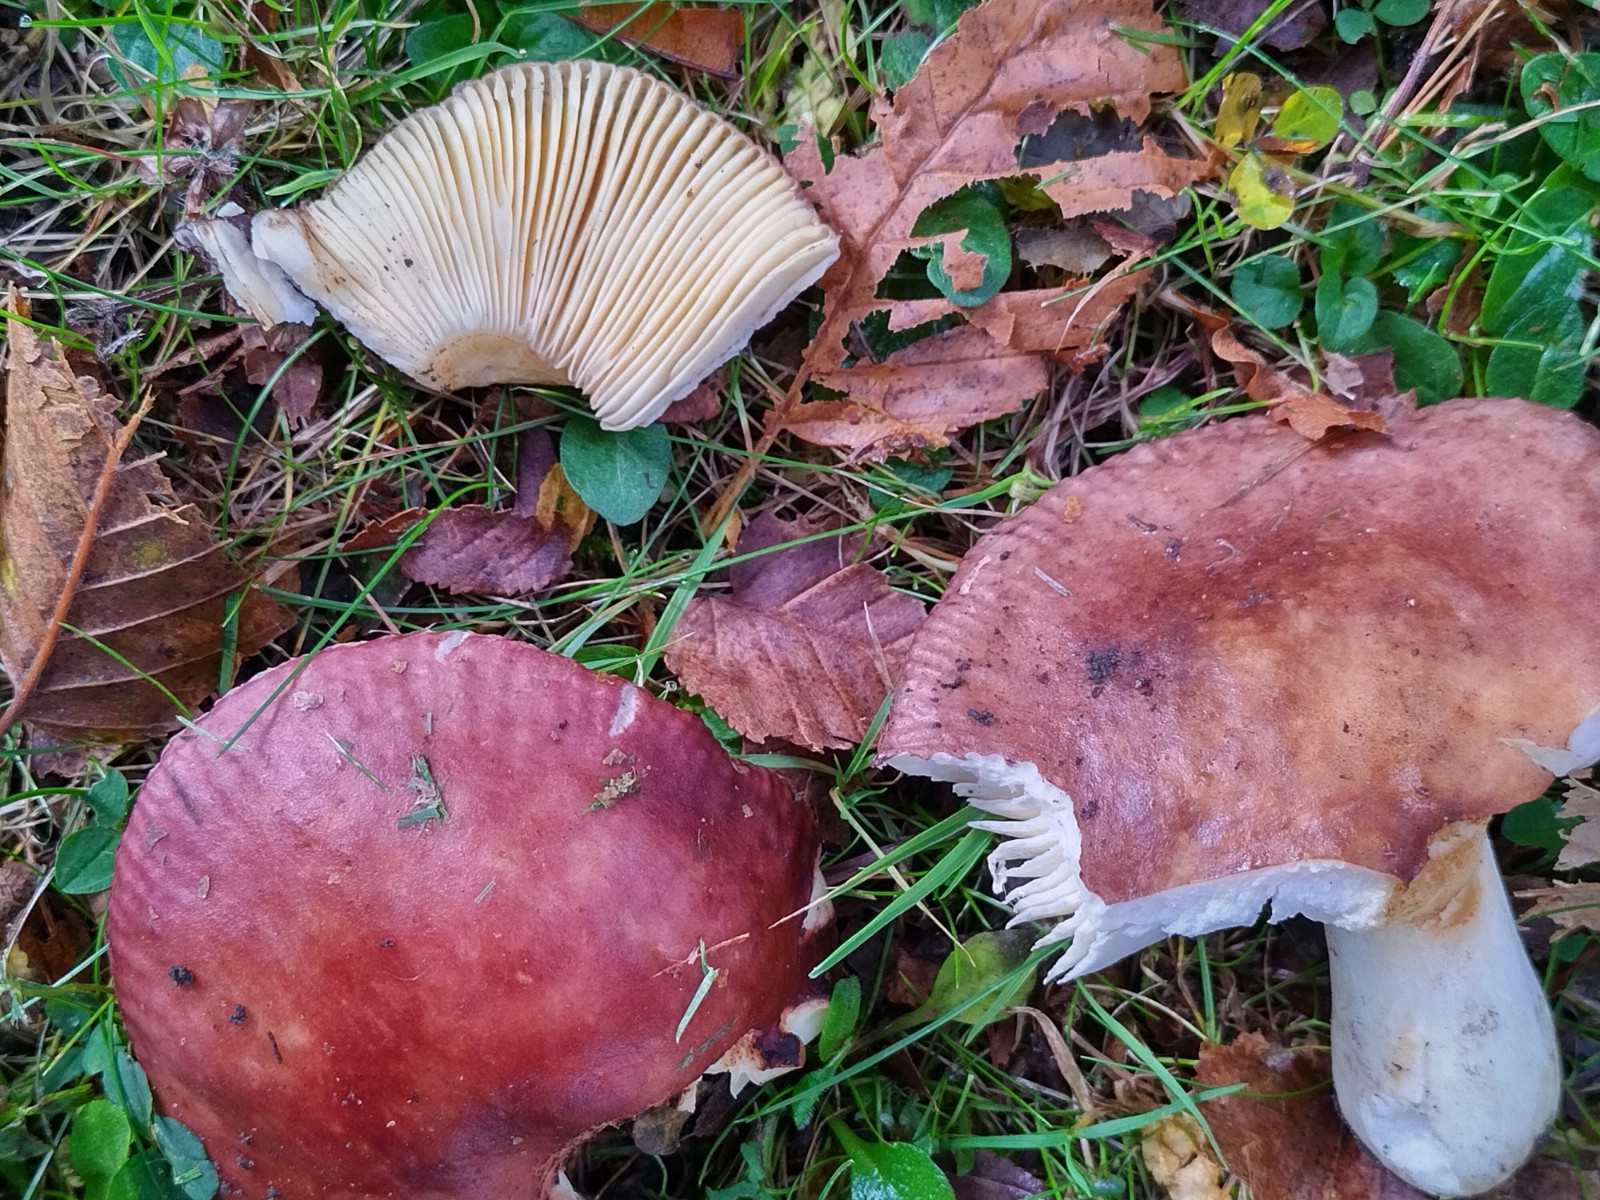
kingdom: Fungi
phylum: Basidiomycota
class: Agaricomycetes
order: Russulales
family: Russulaceae
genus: Russula
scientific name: Russula carpini
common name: avnbøg-skørhat
